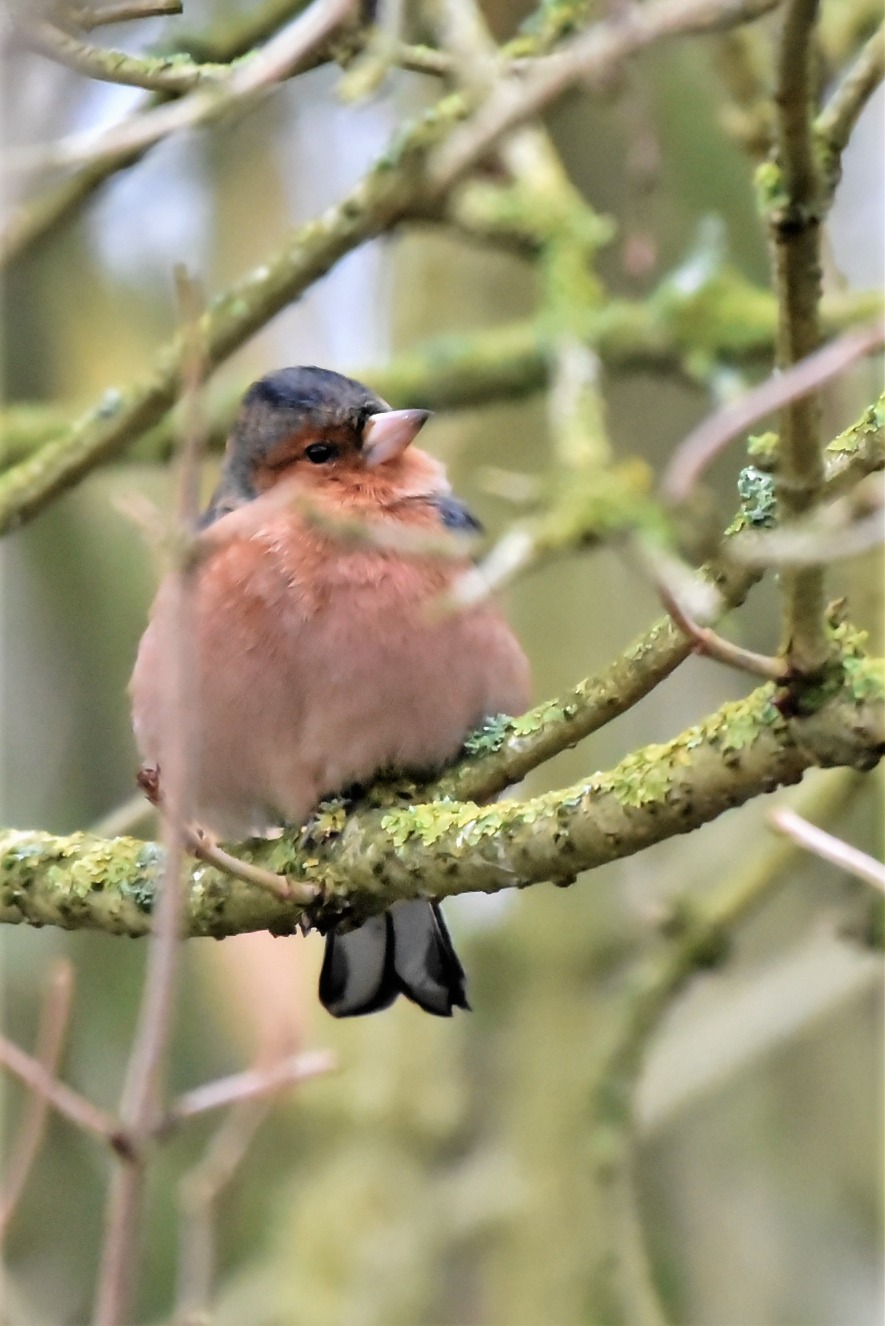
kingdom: Animalia
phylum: Chordata
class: Aves
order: Passeriformes
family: Fringillidae
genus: Fringilla
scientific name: Fringilla coelebs
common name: Bogfinke
